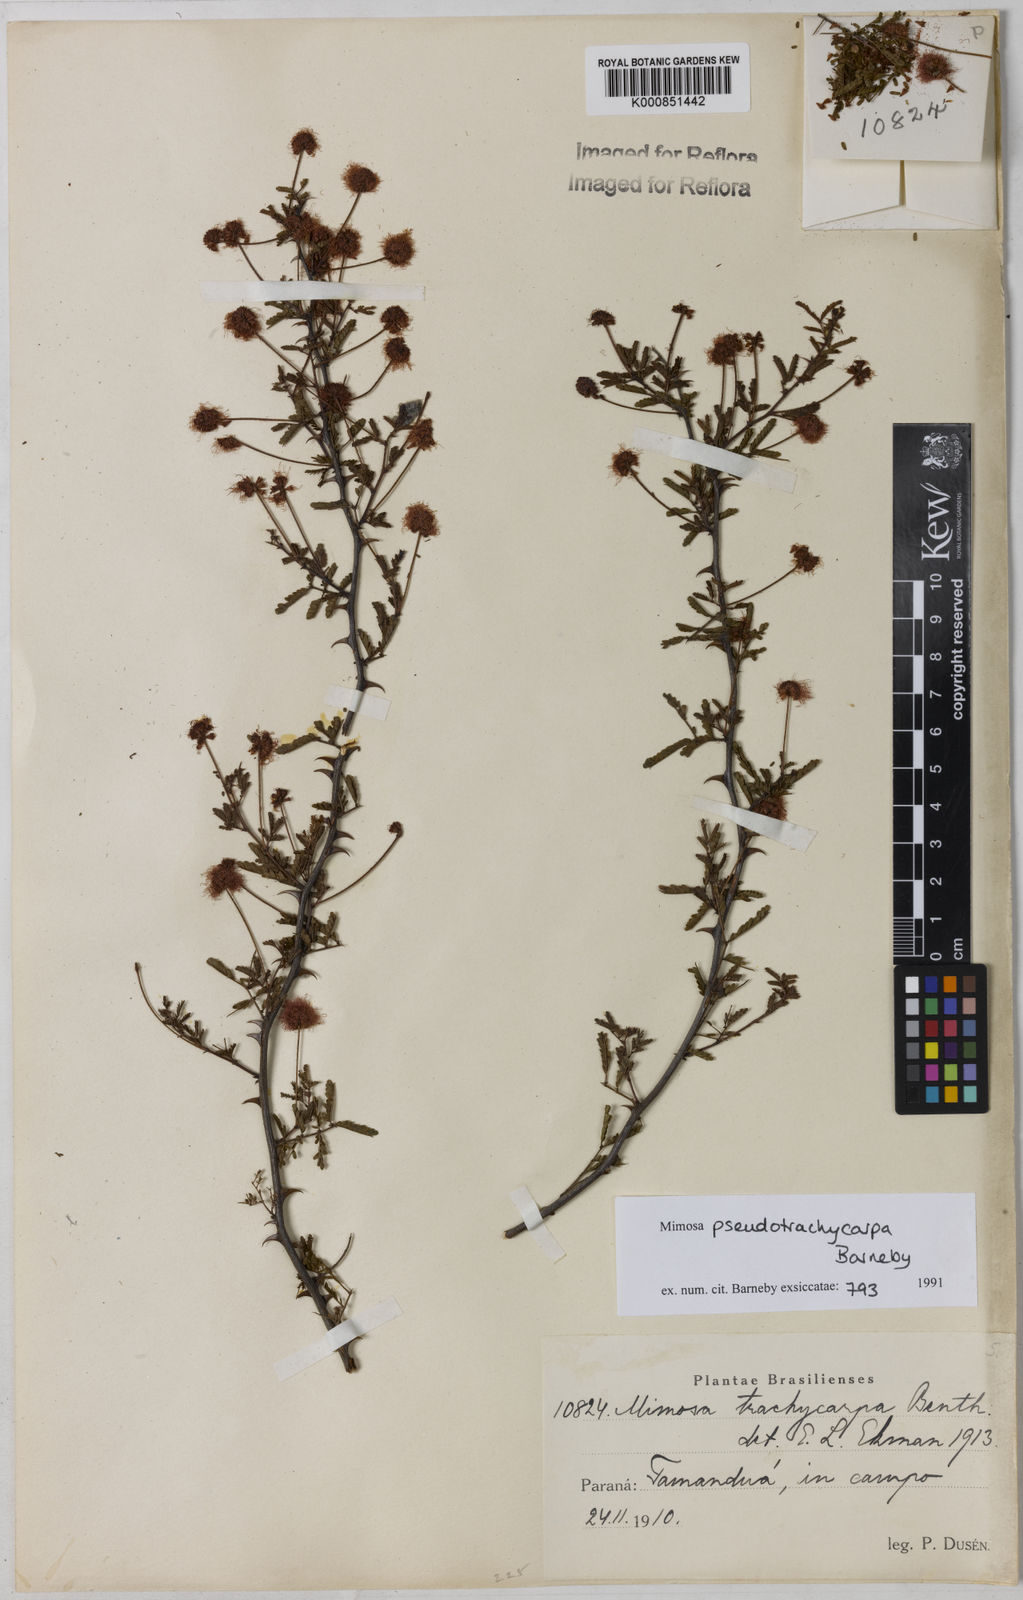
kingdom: Plantae
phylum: Tracheophyta
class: Magnoliopsida
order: Fabales
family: Fabaceae
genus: Mimosa
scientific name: Mimosa pseudotrachycarpa
